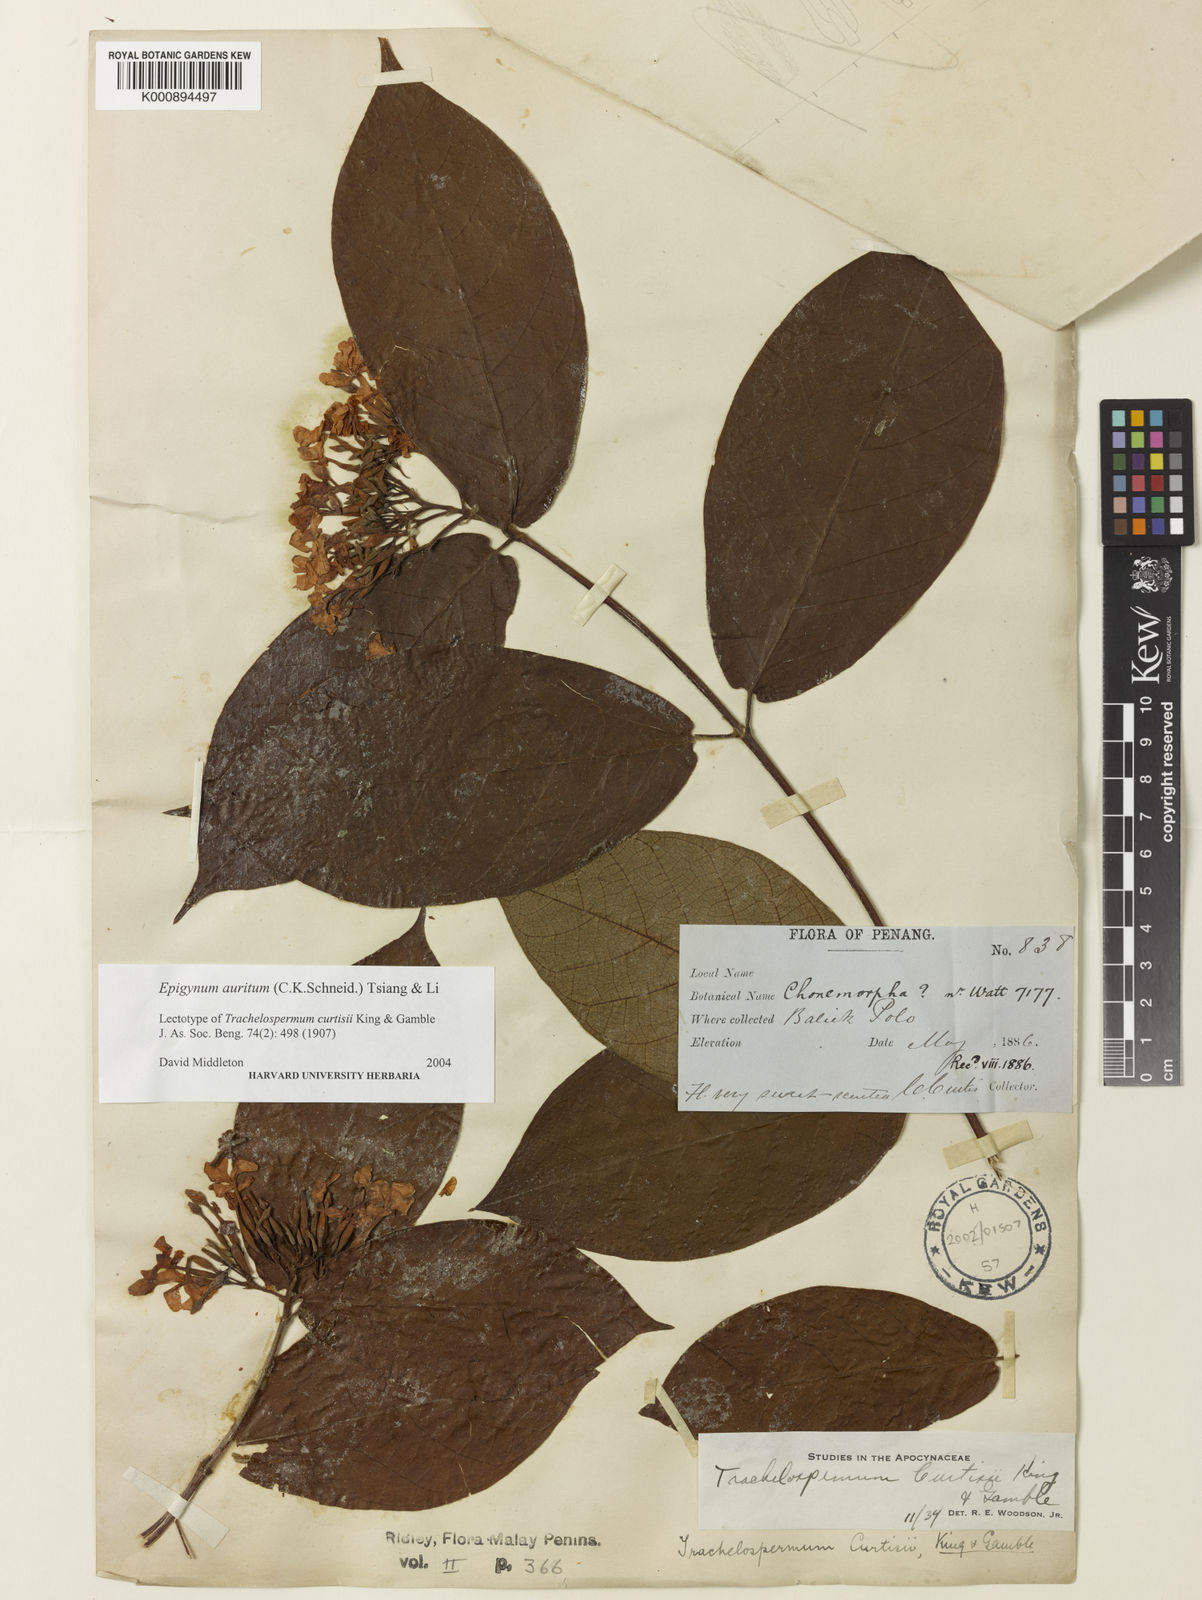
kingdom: Plantae
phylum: Tracheophyta
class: Magnoliopsida
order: Gentianales
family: Apocynaceae
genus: Epigynum
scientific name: Epigynum auritum
